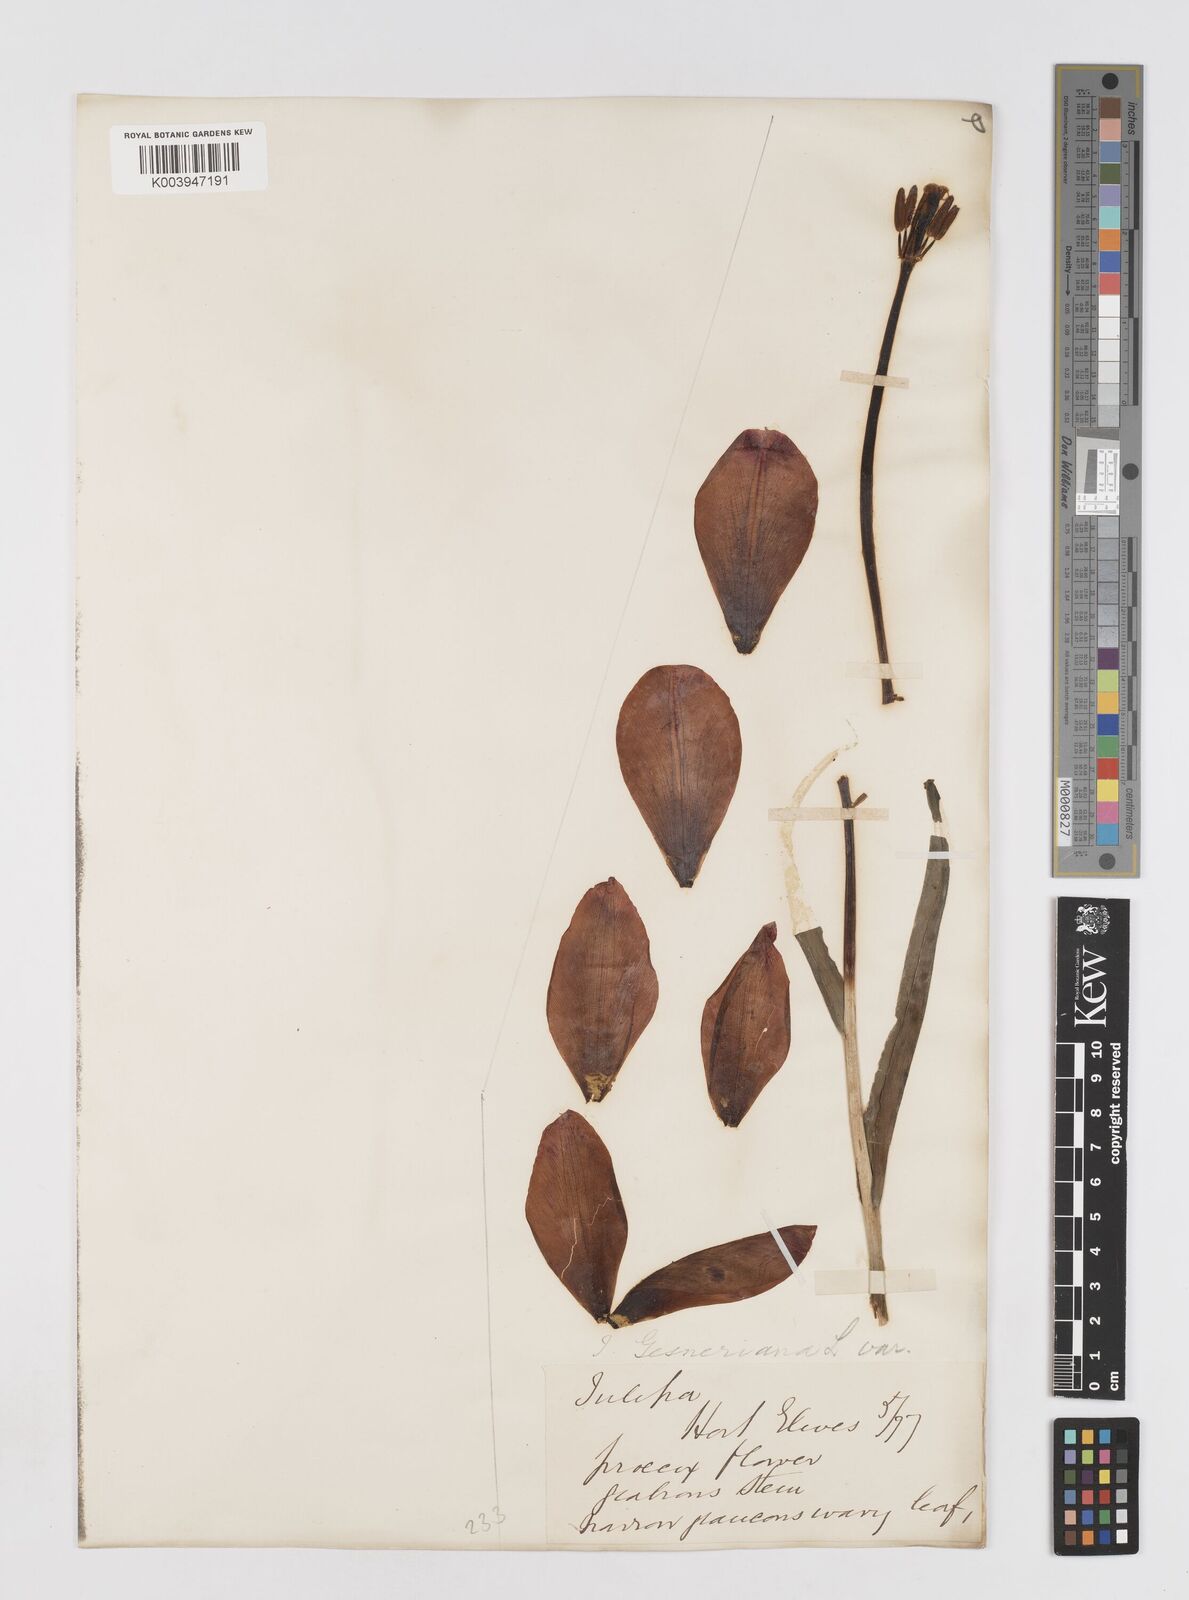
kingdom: Plantae
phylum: Tracheophyta
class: Liliopsida
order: Liliales
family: Liliaceae
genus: Tulipa
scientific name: Tulipa gesneriana
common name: Garden tulip
